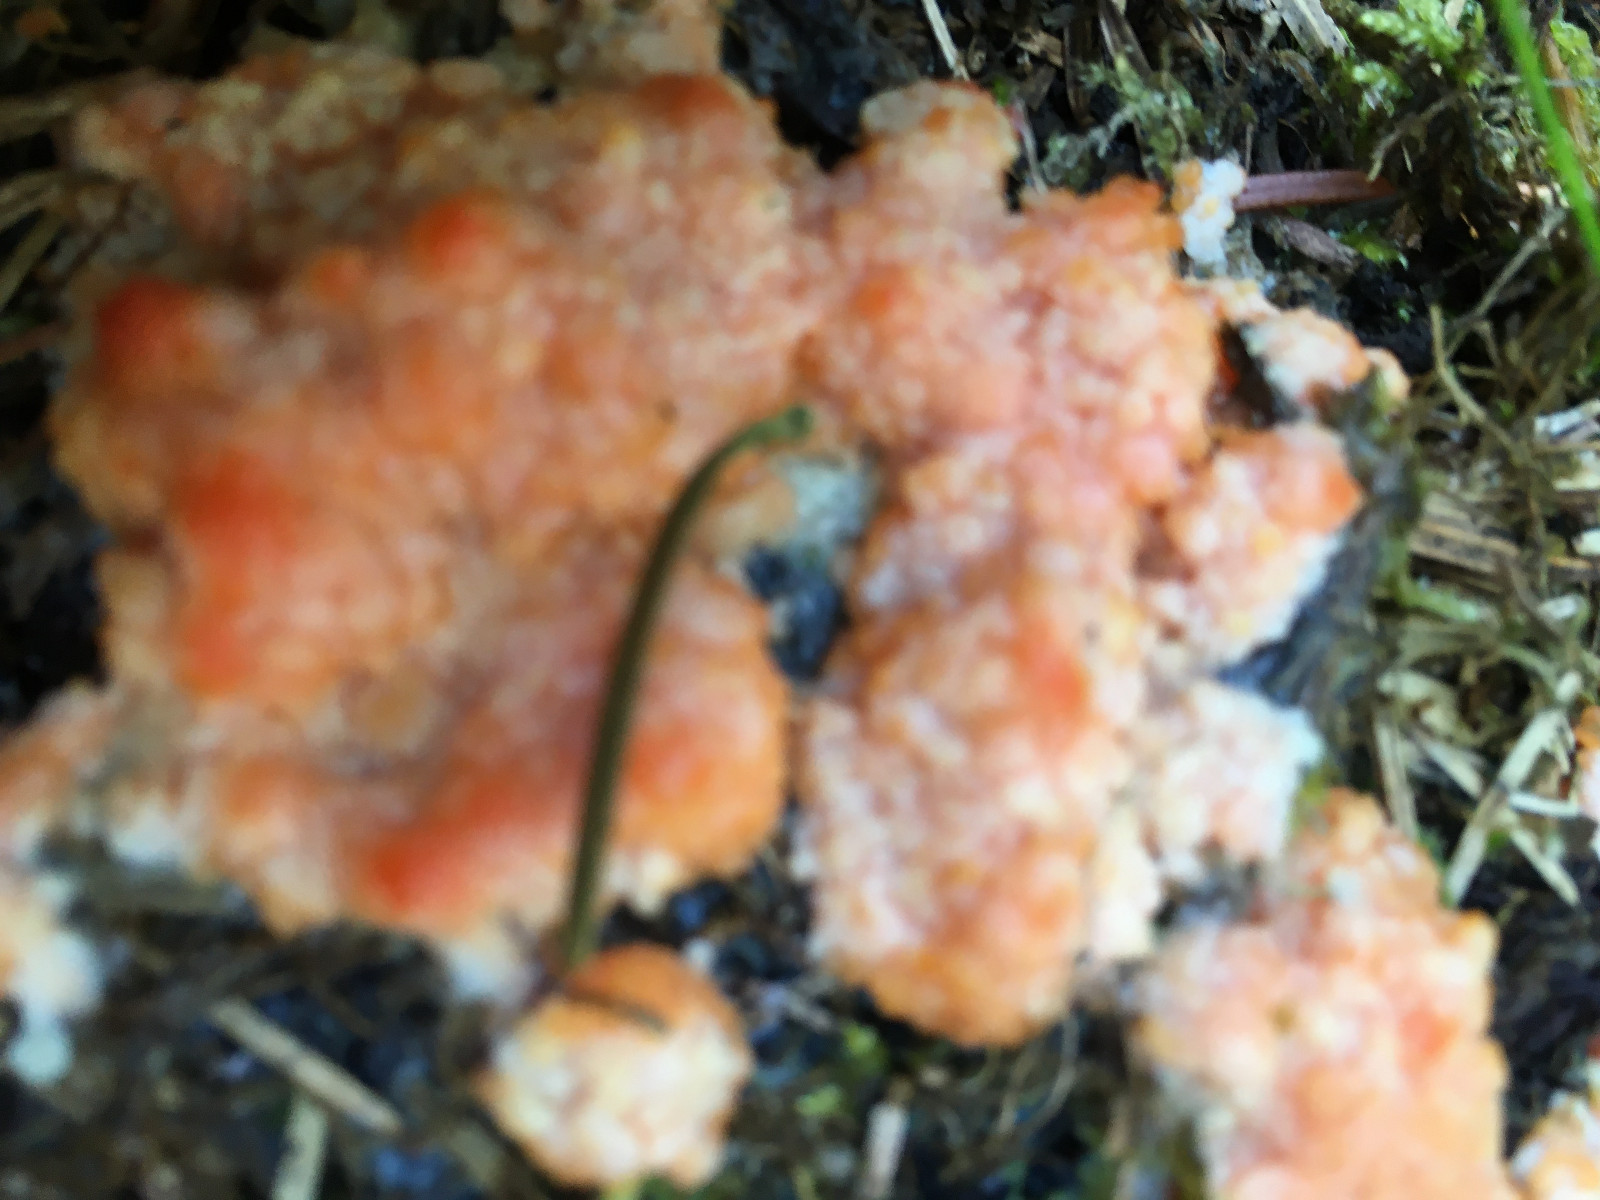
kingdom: Protozoa
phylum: Mycetozoa
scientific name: Mycetozoa
